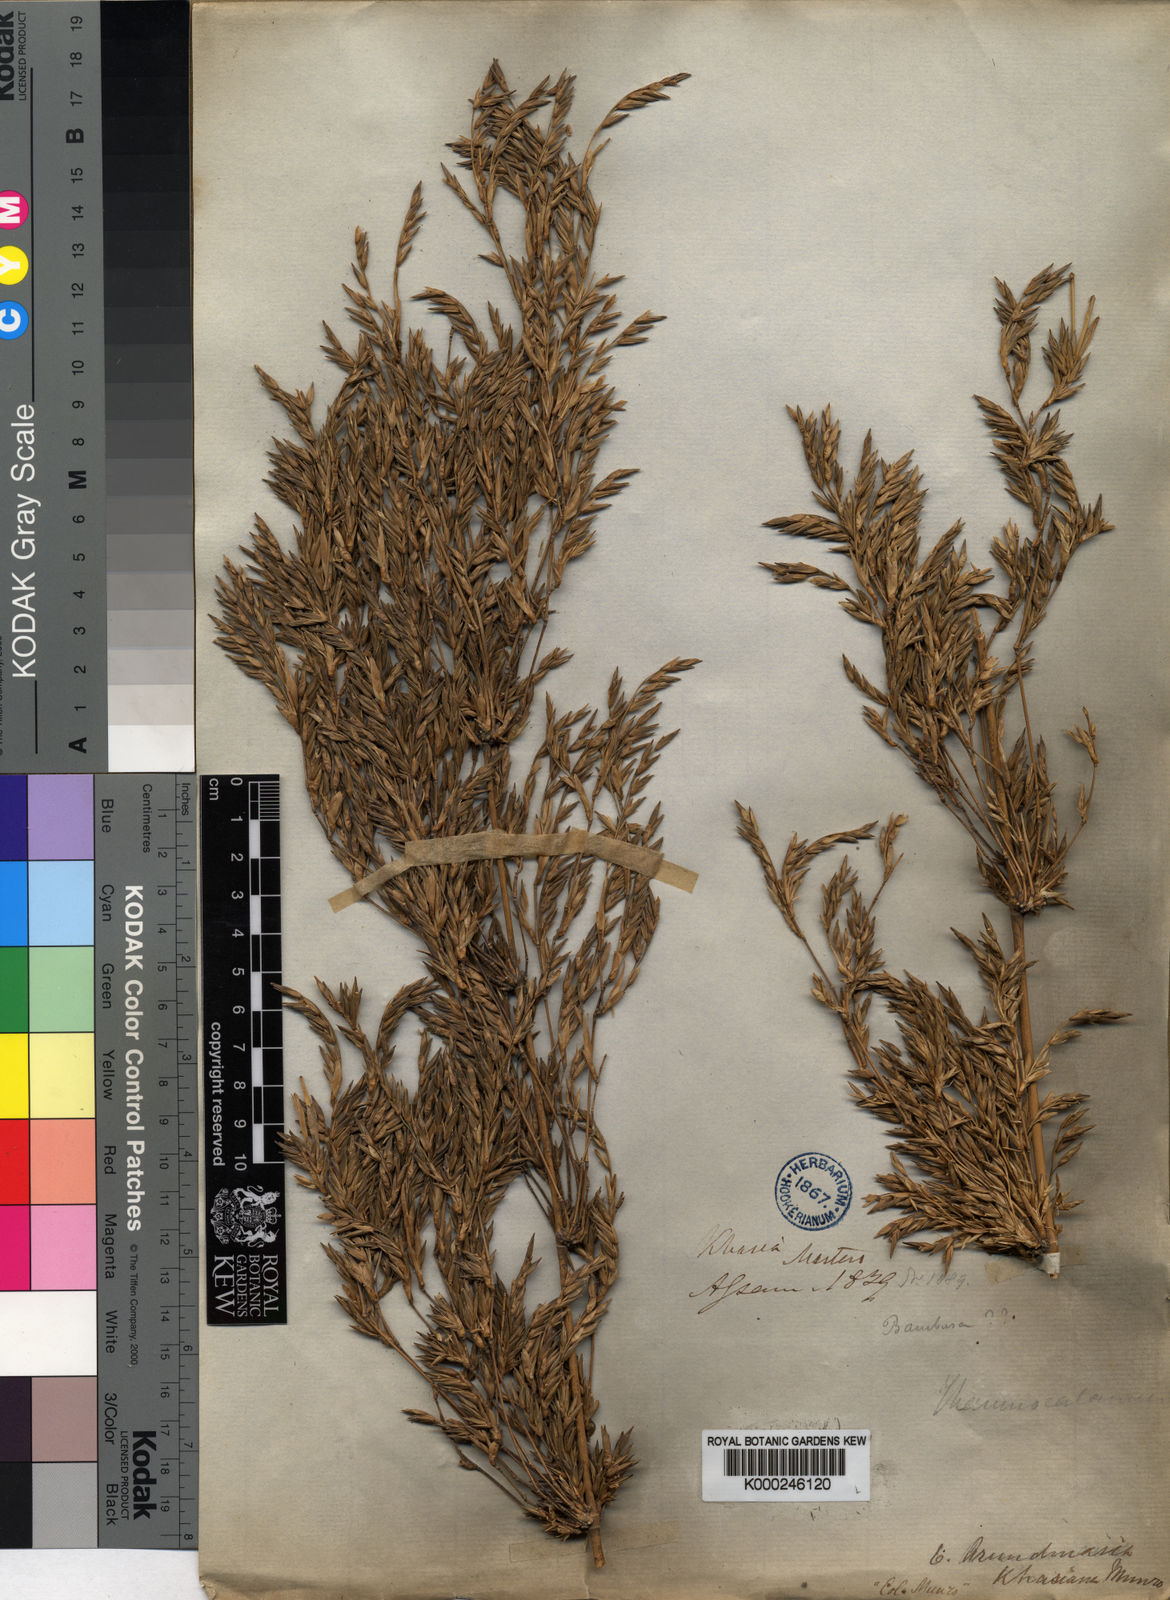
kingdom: Plantae
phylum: Tracheophyta
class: Liliopsida
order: Poales
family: Poaceae
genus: Drepanostachyum
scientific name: Drepanostachyum khasianum
